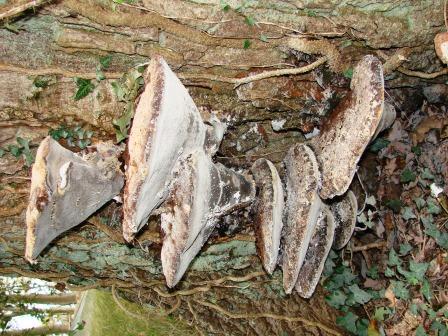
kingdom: Fungi
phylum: Basidiomycota
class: Agaricomycetes
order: Hymenochaetales
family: Hymenochaetaceae
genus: Pseudoinonotus
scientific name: Pseudoinonotus dryadeus
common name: ege-spejlporesvamp
